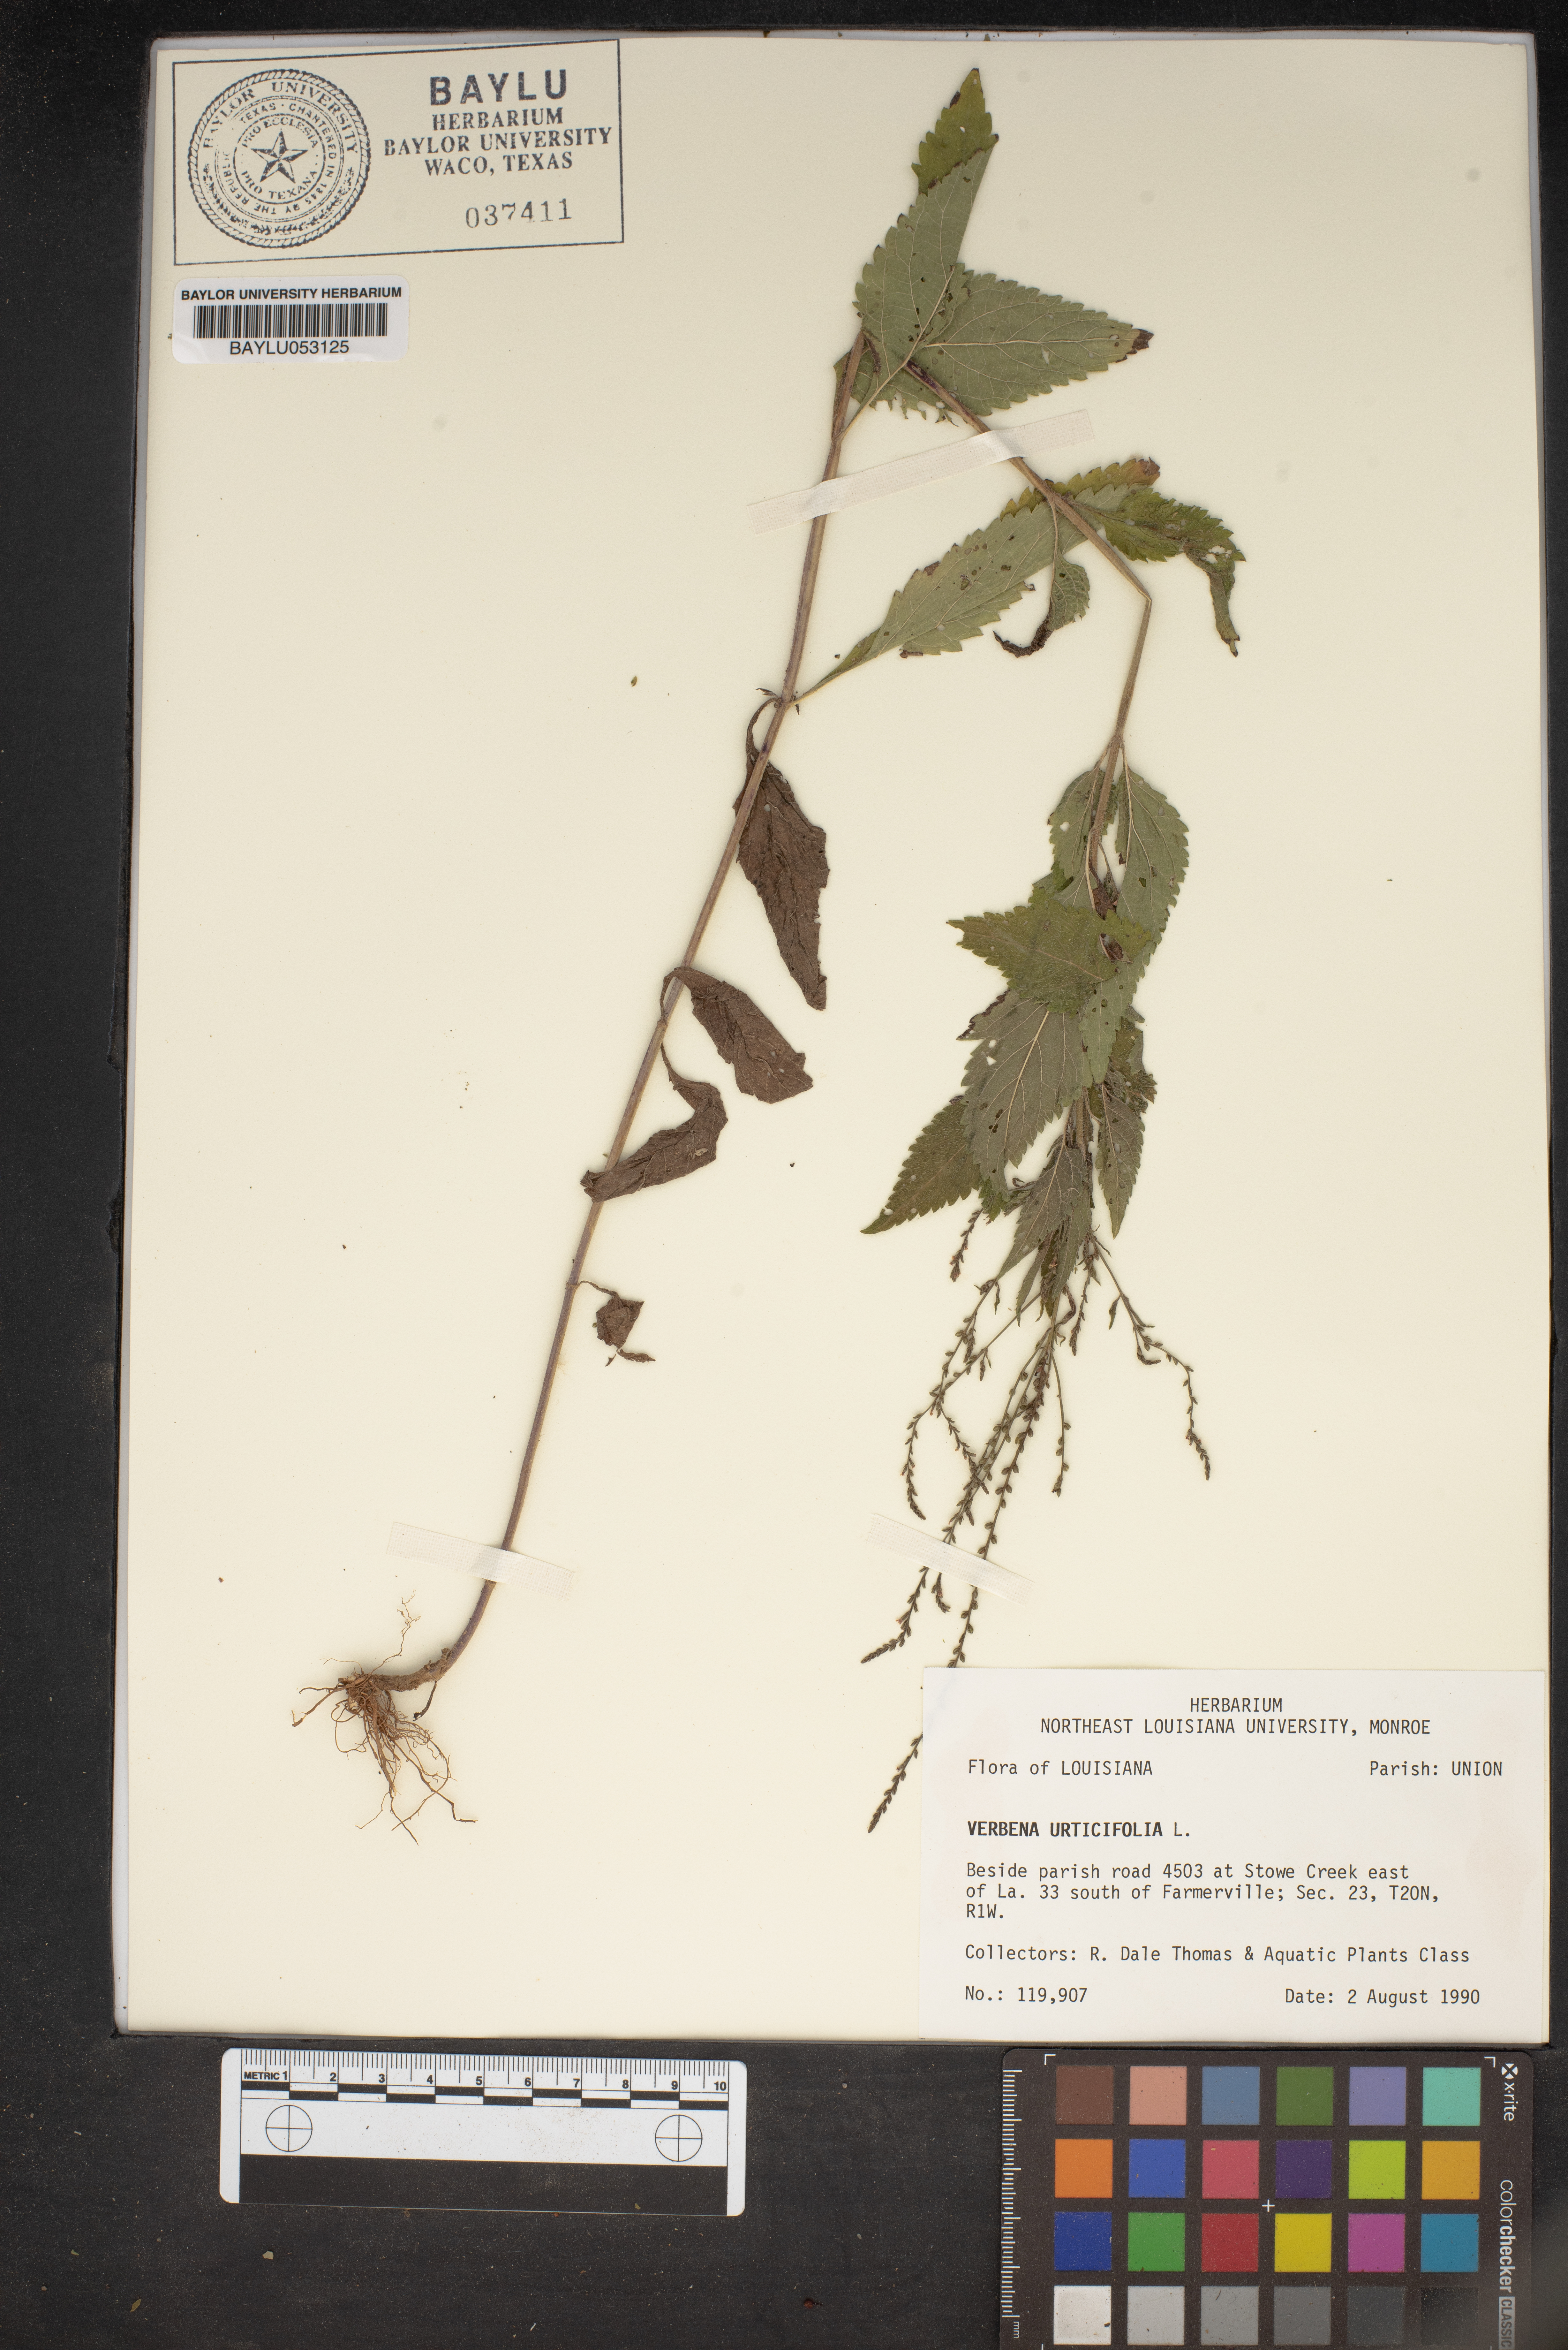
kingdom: Plantae
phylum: Tracheophyta
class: Magnoliopsida
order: Lamiales
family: Verbenaceae
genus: Verbena
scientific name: Verbena urticifolia
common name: Nettle-leaved vervain
